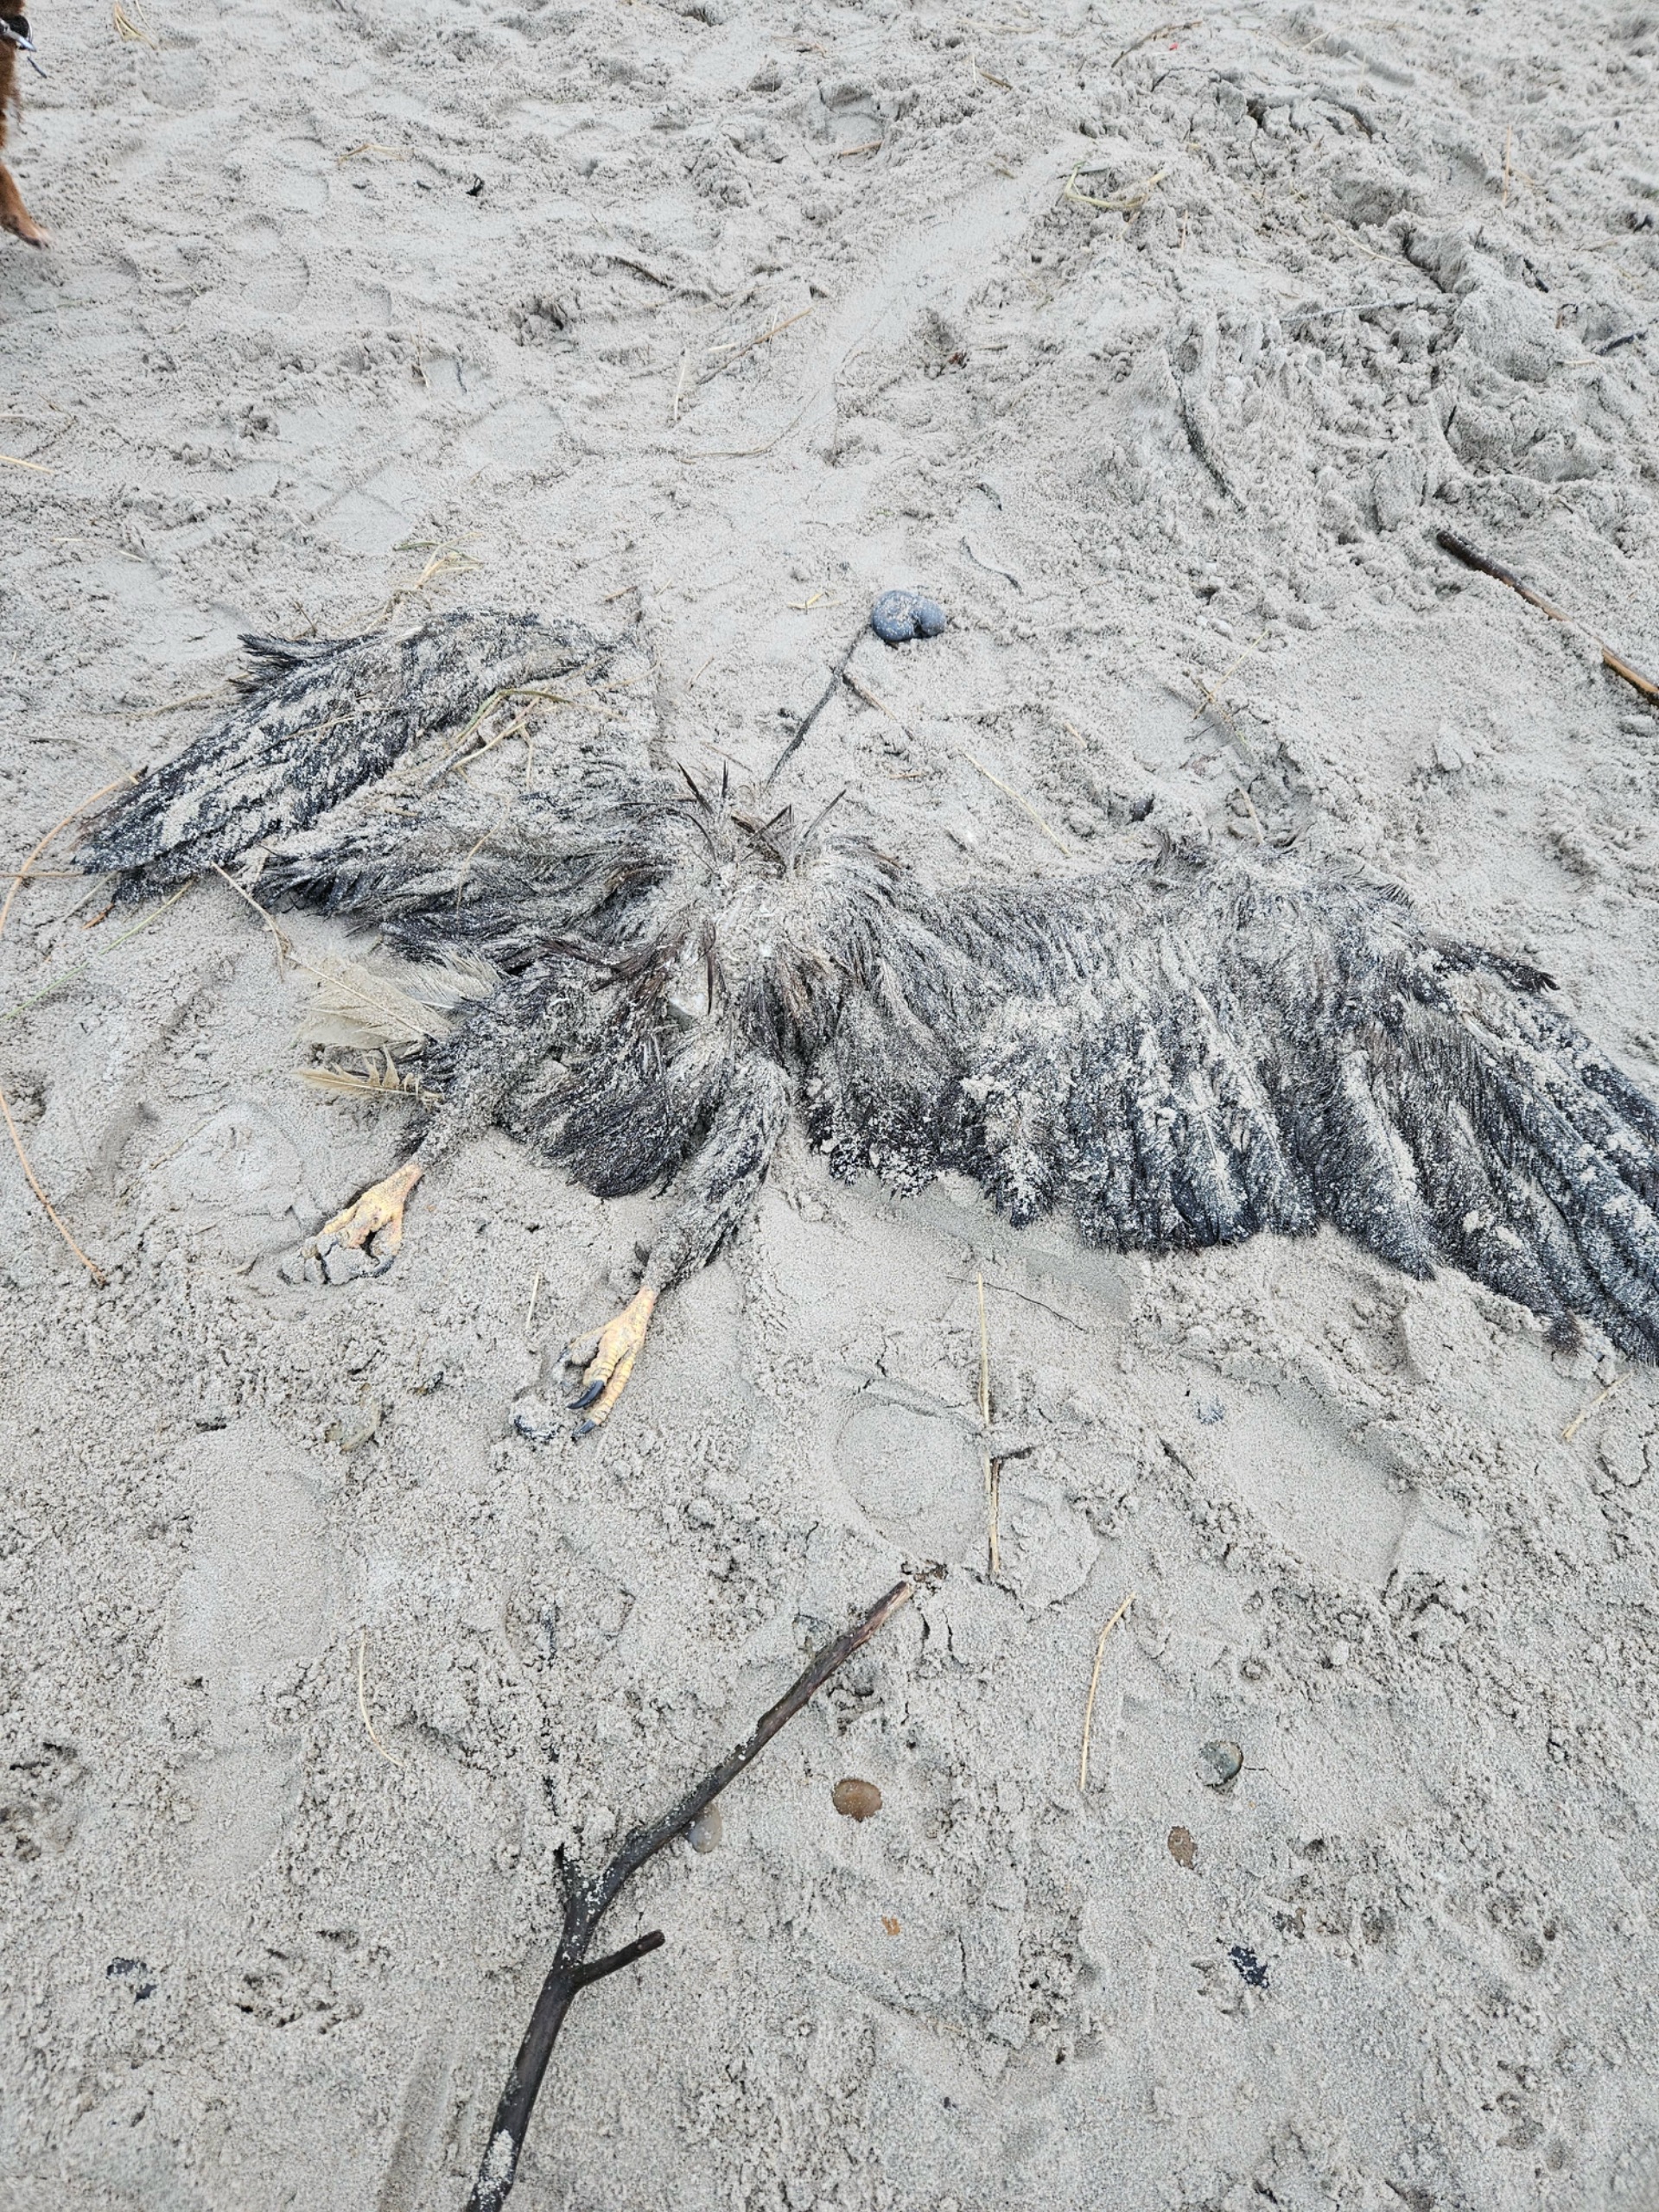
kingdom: Animalia
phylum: Chordata
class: Aves
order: Accipitriformes
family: Accipitridae
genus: Haliaeetus
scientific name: Haliaeetus albicilla
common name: Havørn
